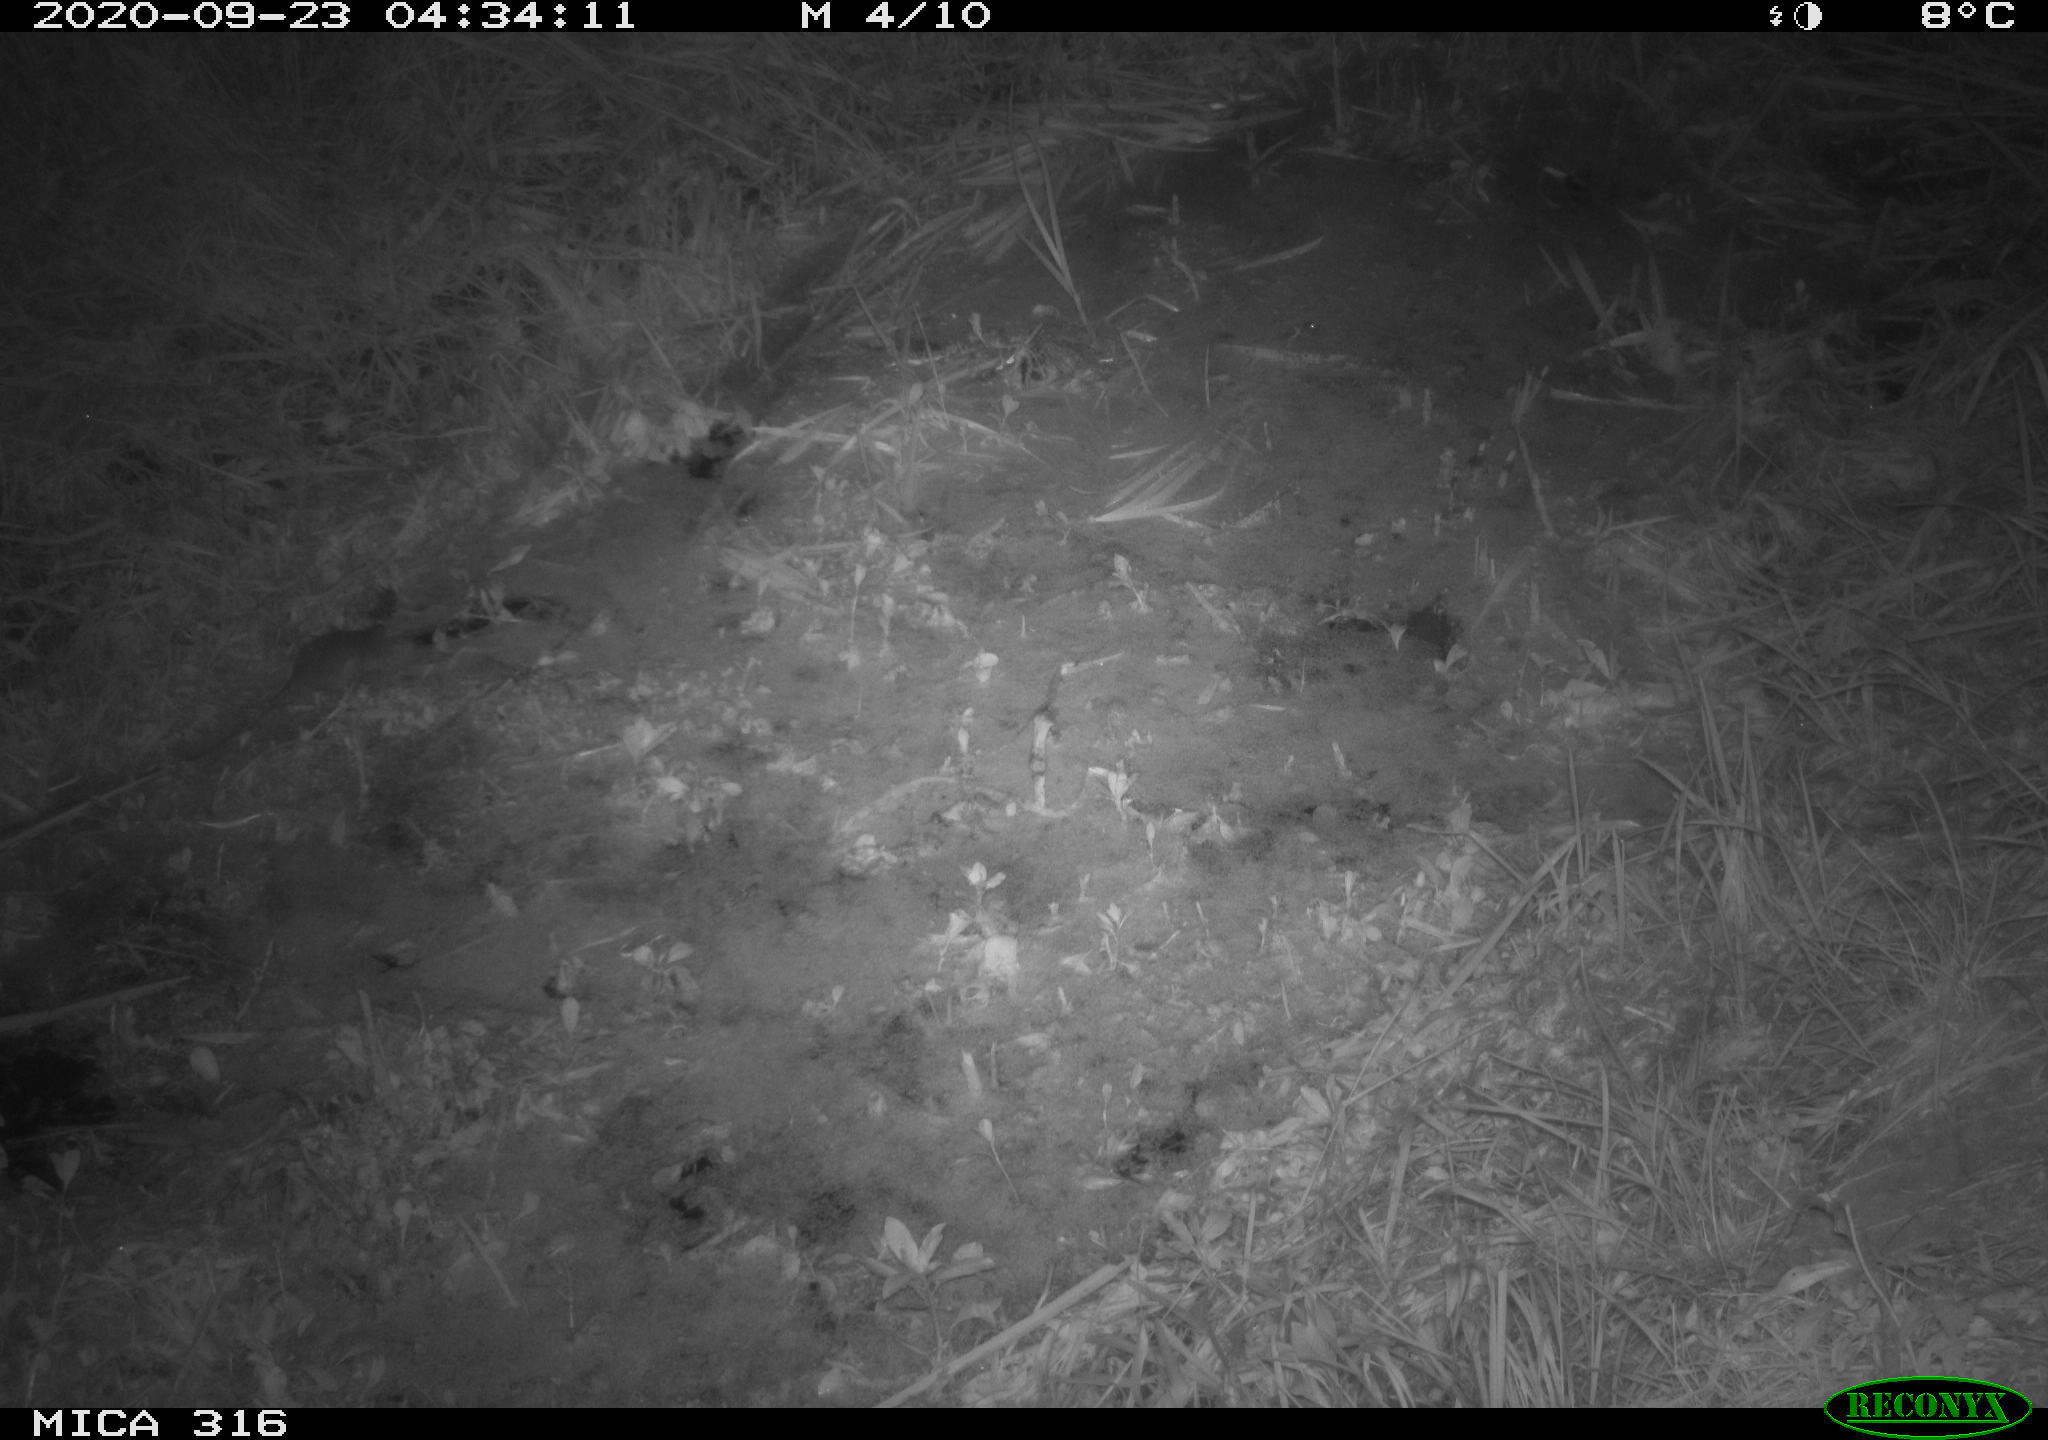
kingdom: Animalia
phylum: Chordata
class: Mammalia
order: Rodentia
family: Muridae
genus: Rattus
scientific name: Rattus norvegicus
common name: Brown rat
